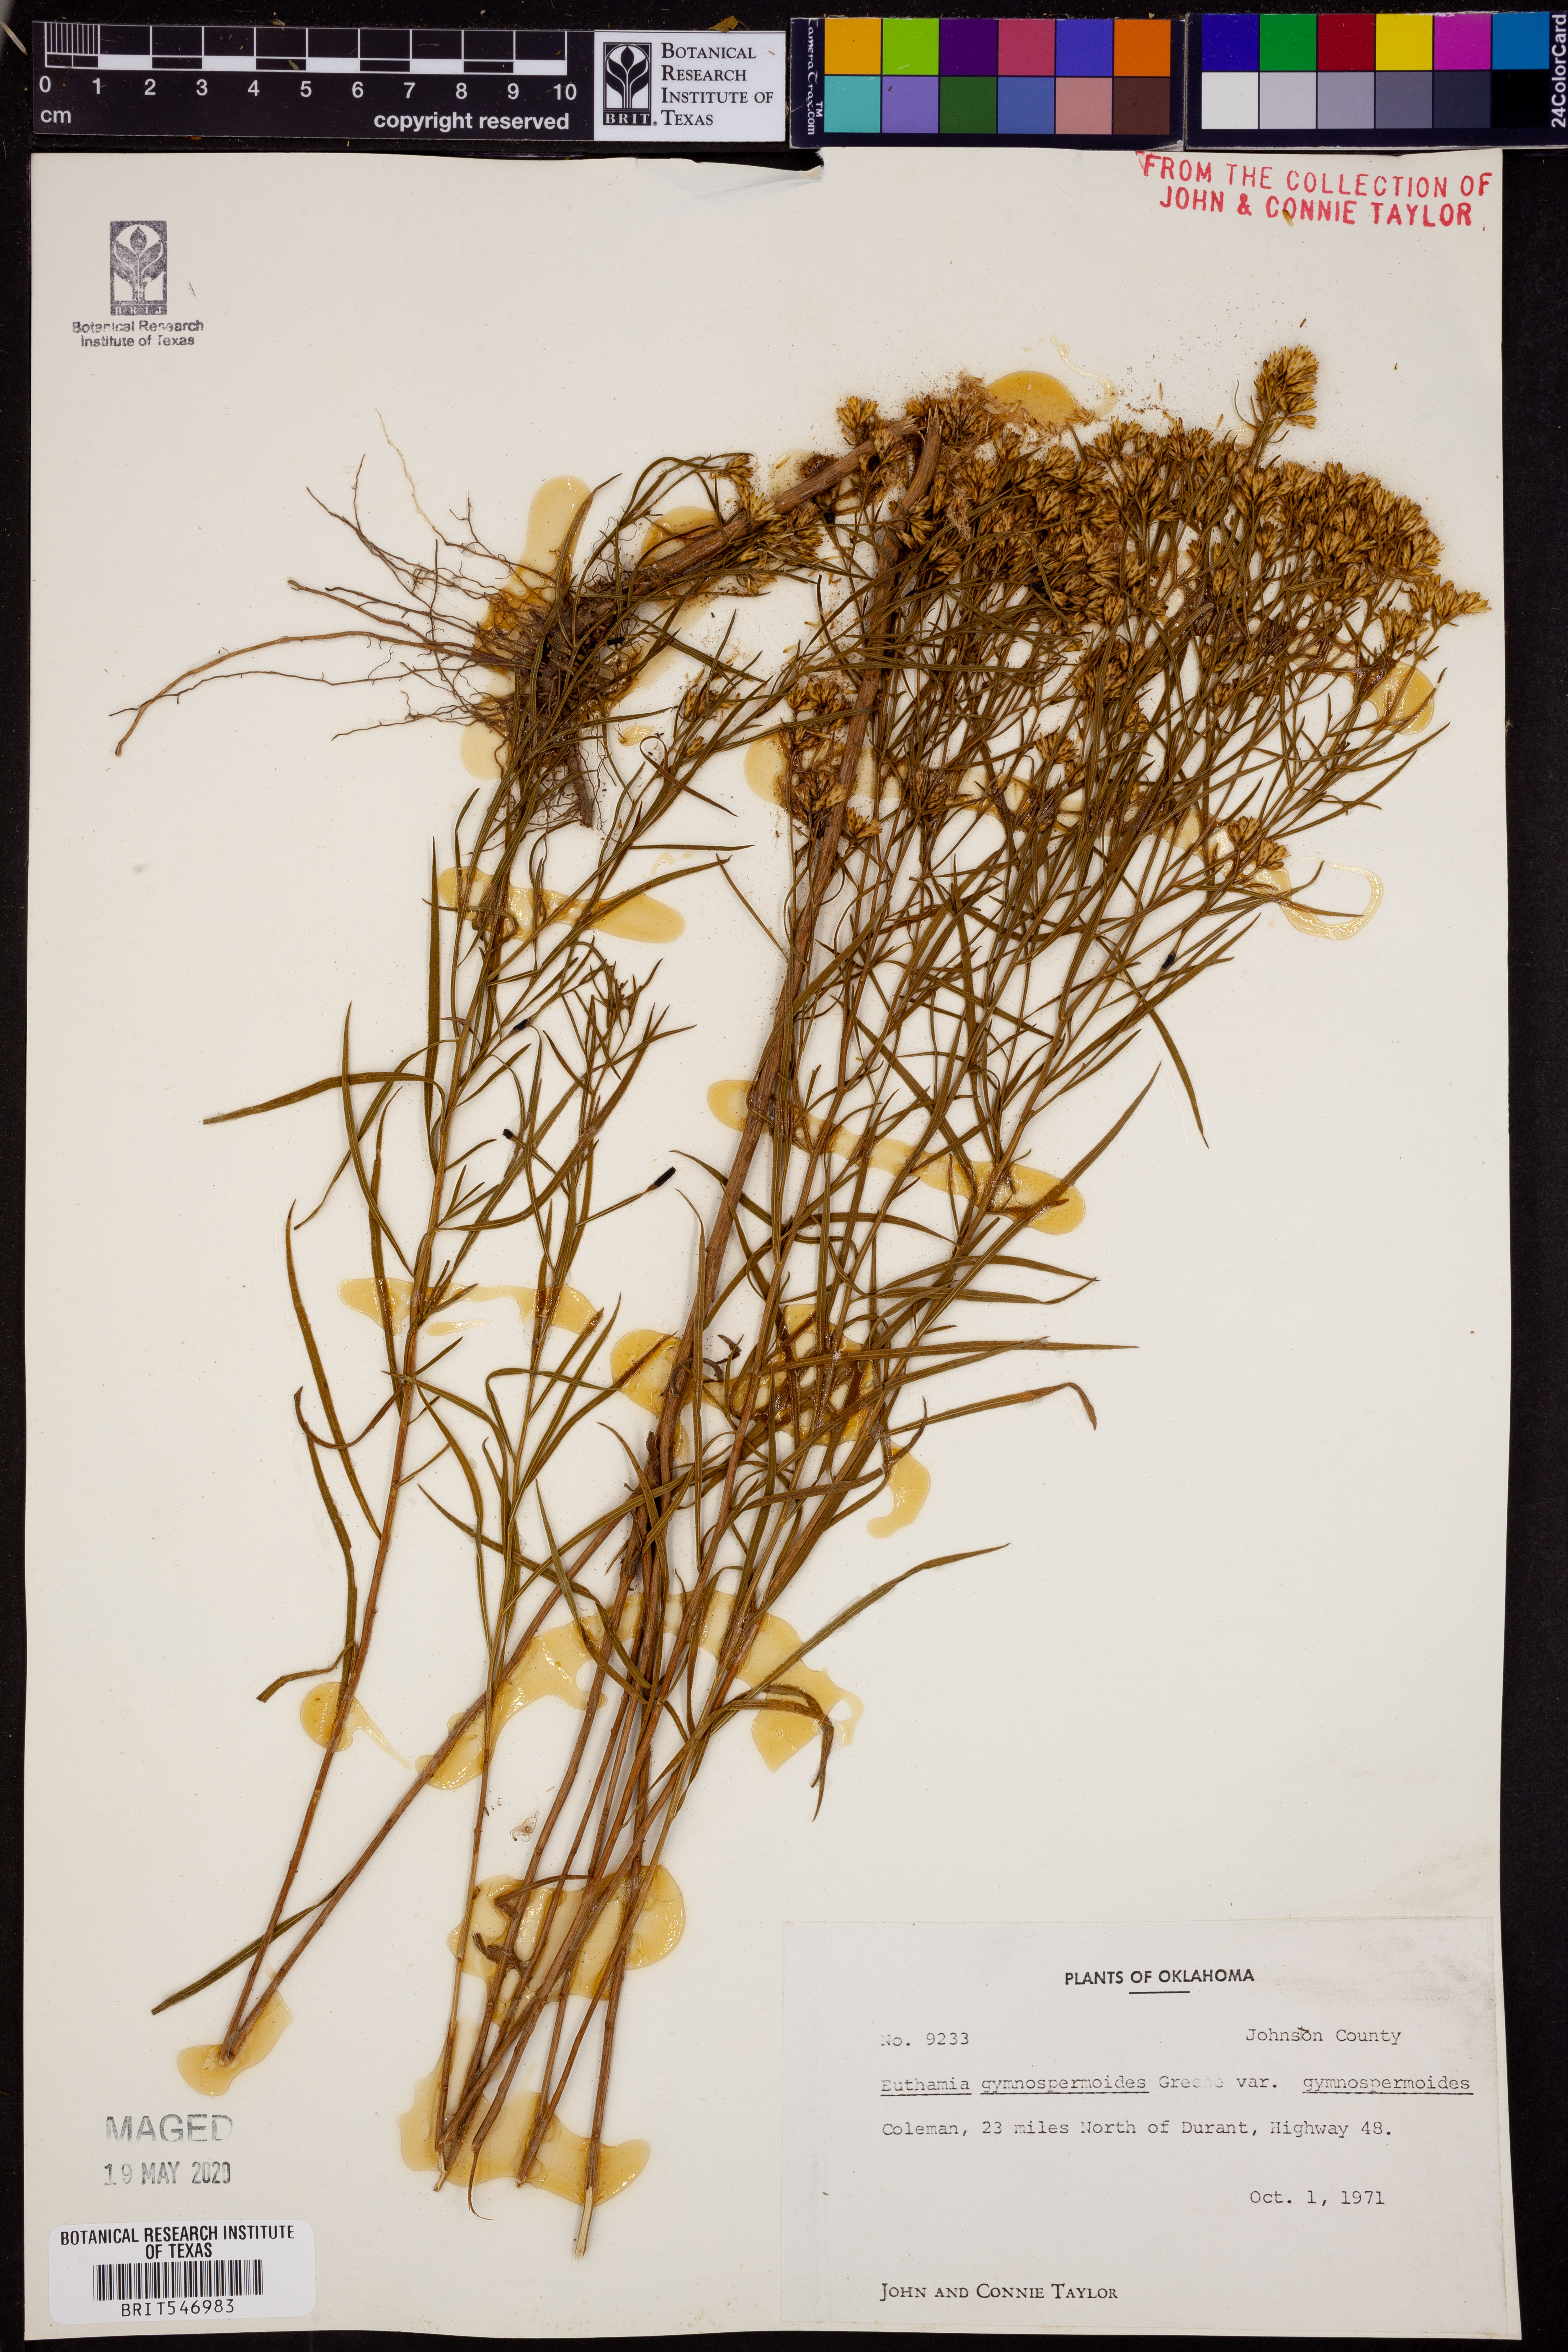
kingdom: Plantae
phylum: Tracheophyta
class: Magnoliopsida
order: Asterales
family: Asteraceae
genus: Euthamia
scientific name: Euthamia gymnospermoides
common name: Great plains goldentop
